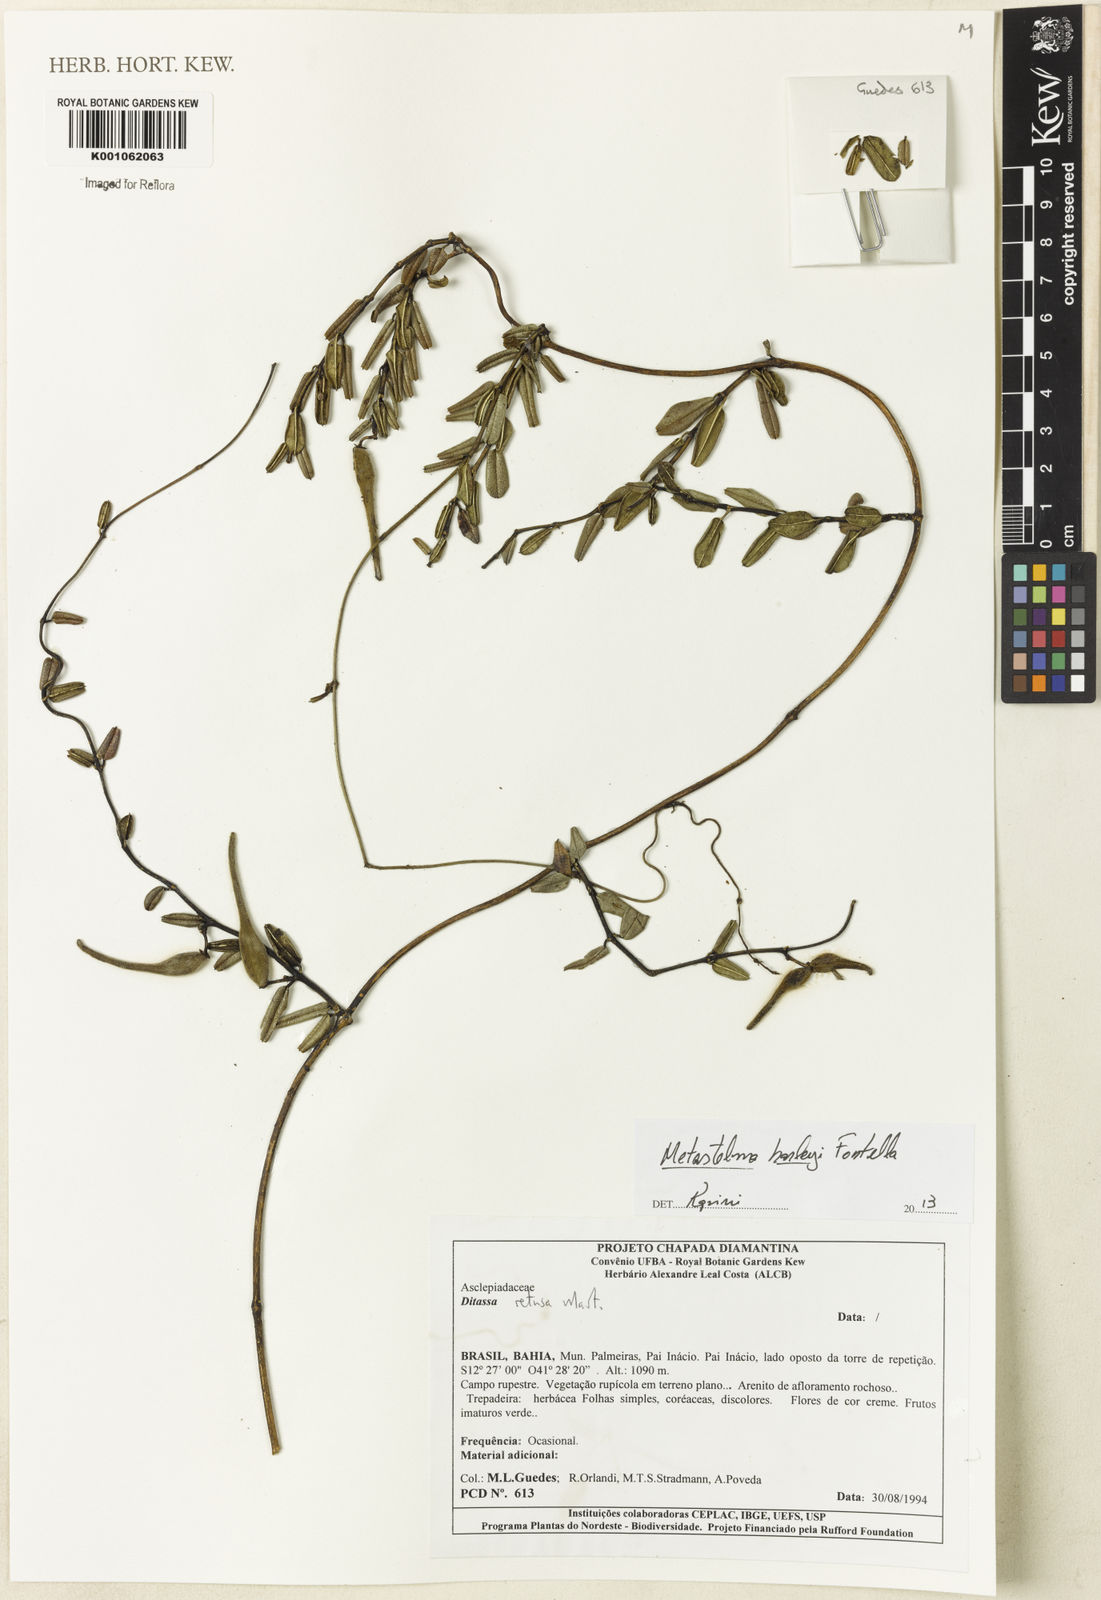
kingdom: Plantae
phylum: Tracheophyta
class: Magnoliopsida
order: Gentianales
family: Apocynaceae
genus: Metastelma
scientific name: Metastelma harleyi
